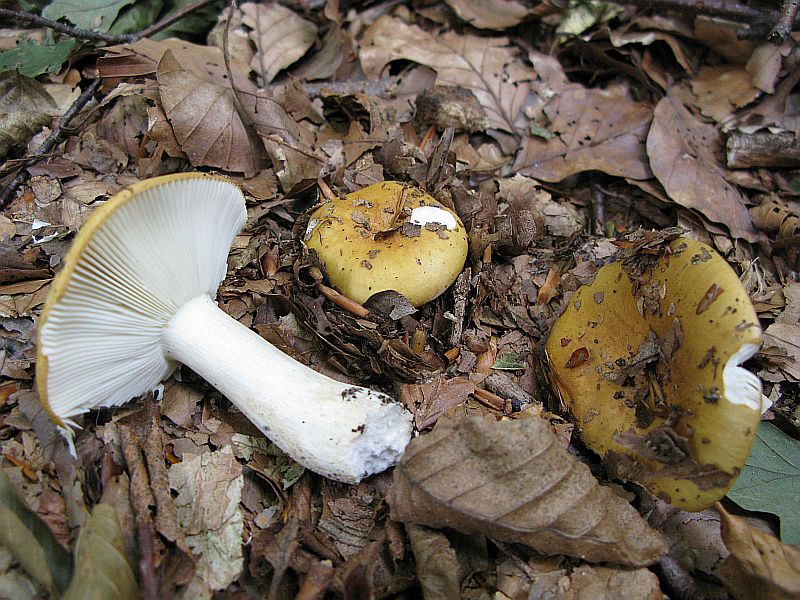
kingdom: Fungi
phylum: Basidiomycota
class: Agaricomycetes
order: Russulales
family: Russulaceae
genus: Russula
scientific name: Russula ochroleuca
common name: okkergul skørhat
